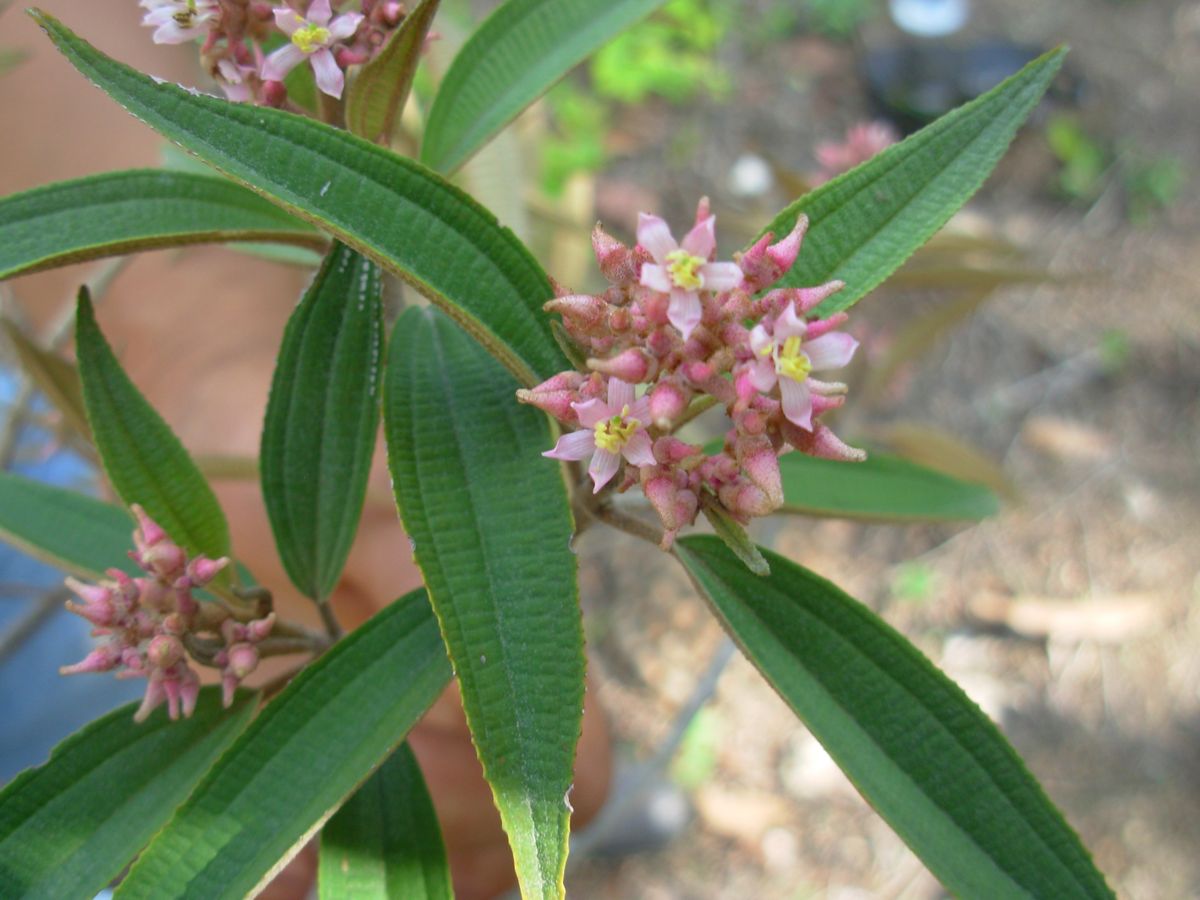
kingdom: Plantae
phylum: Tracheophyta
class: Magnoliopsida
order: Myrtales
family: Melastomataceae
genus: Miconia
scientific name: Miconia xalapensis
